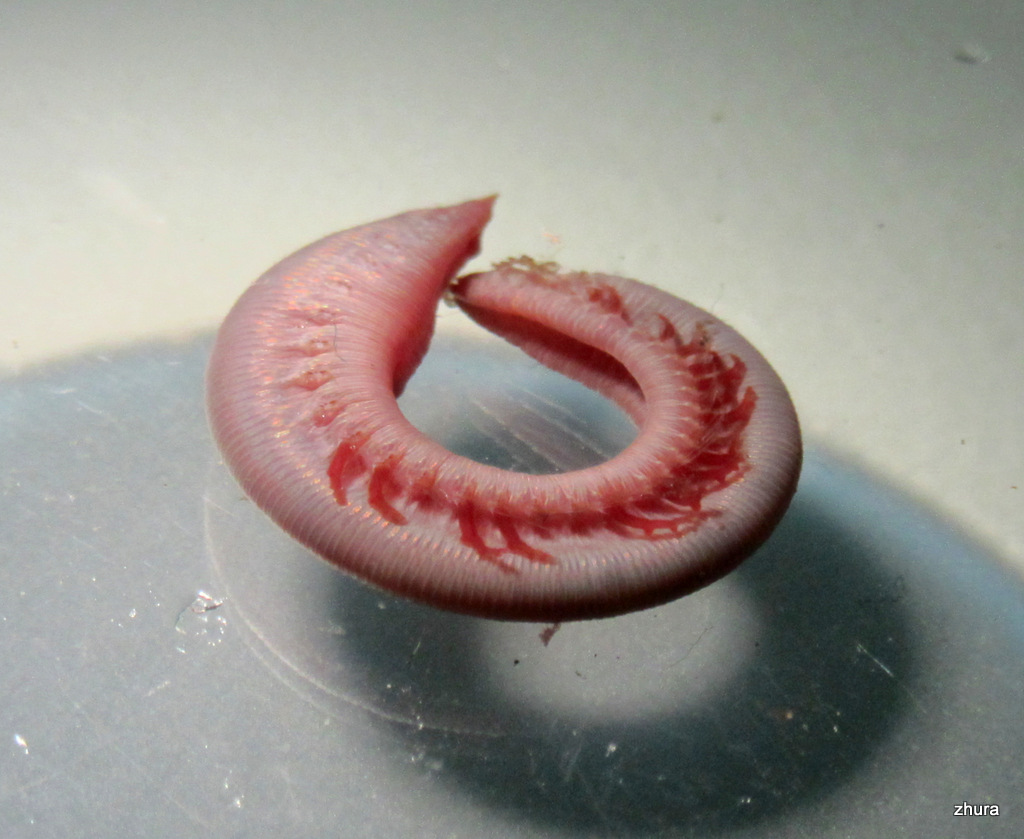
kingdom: Animalia
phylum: Annelida
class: Polychaeta
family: Opheliidae
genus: Ophelia
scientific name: Ophelia limacina
